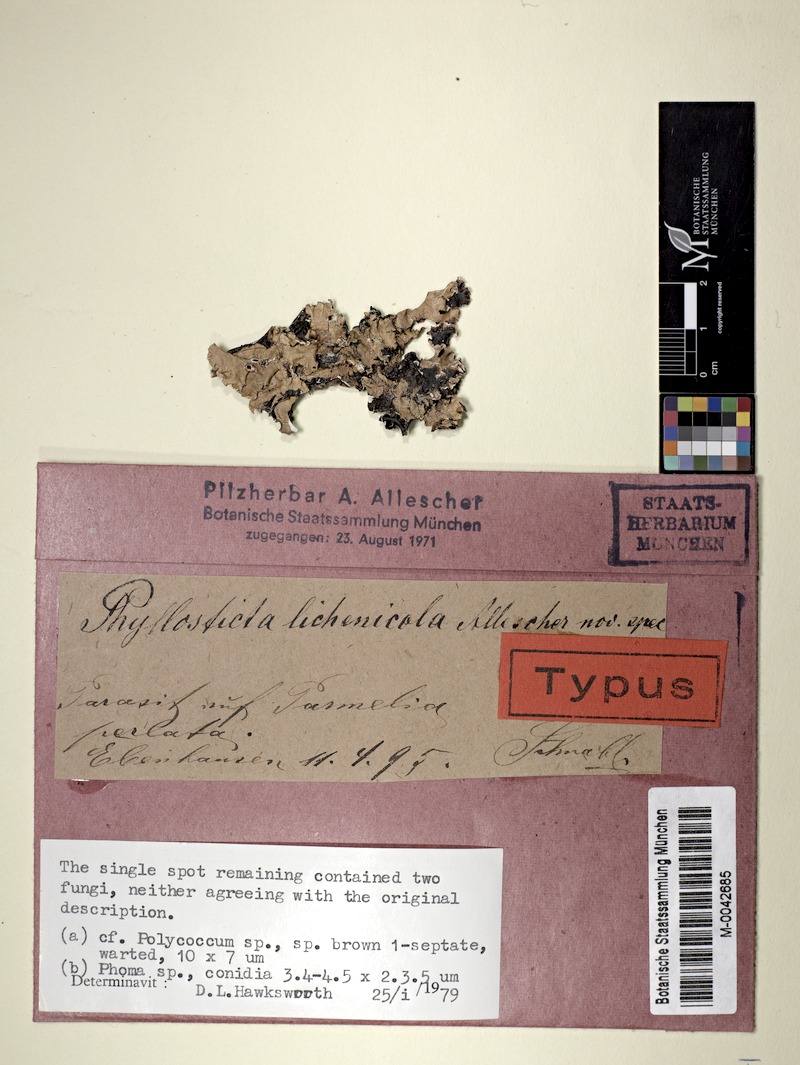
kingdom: Fungi
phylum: Ascomycota
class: Lecanoromycetes
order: Lecanorales
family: Parmeliaceae
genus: Parmotrema
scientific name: Parmotrema perlatum
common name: Black stone flower
